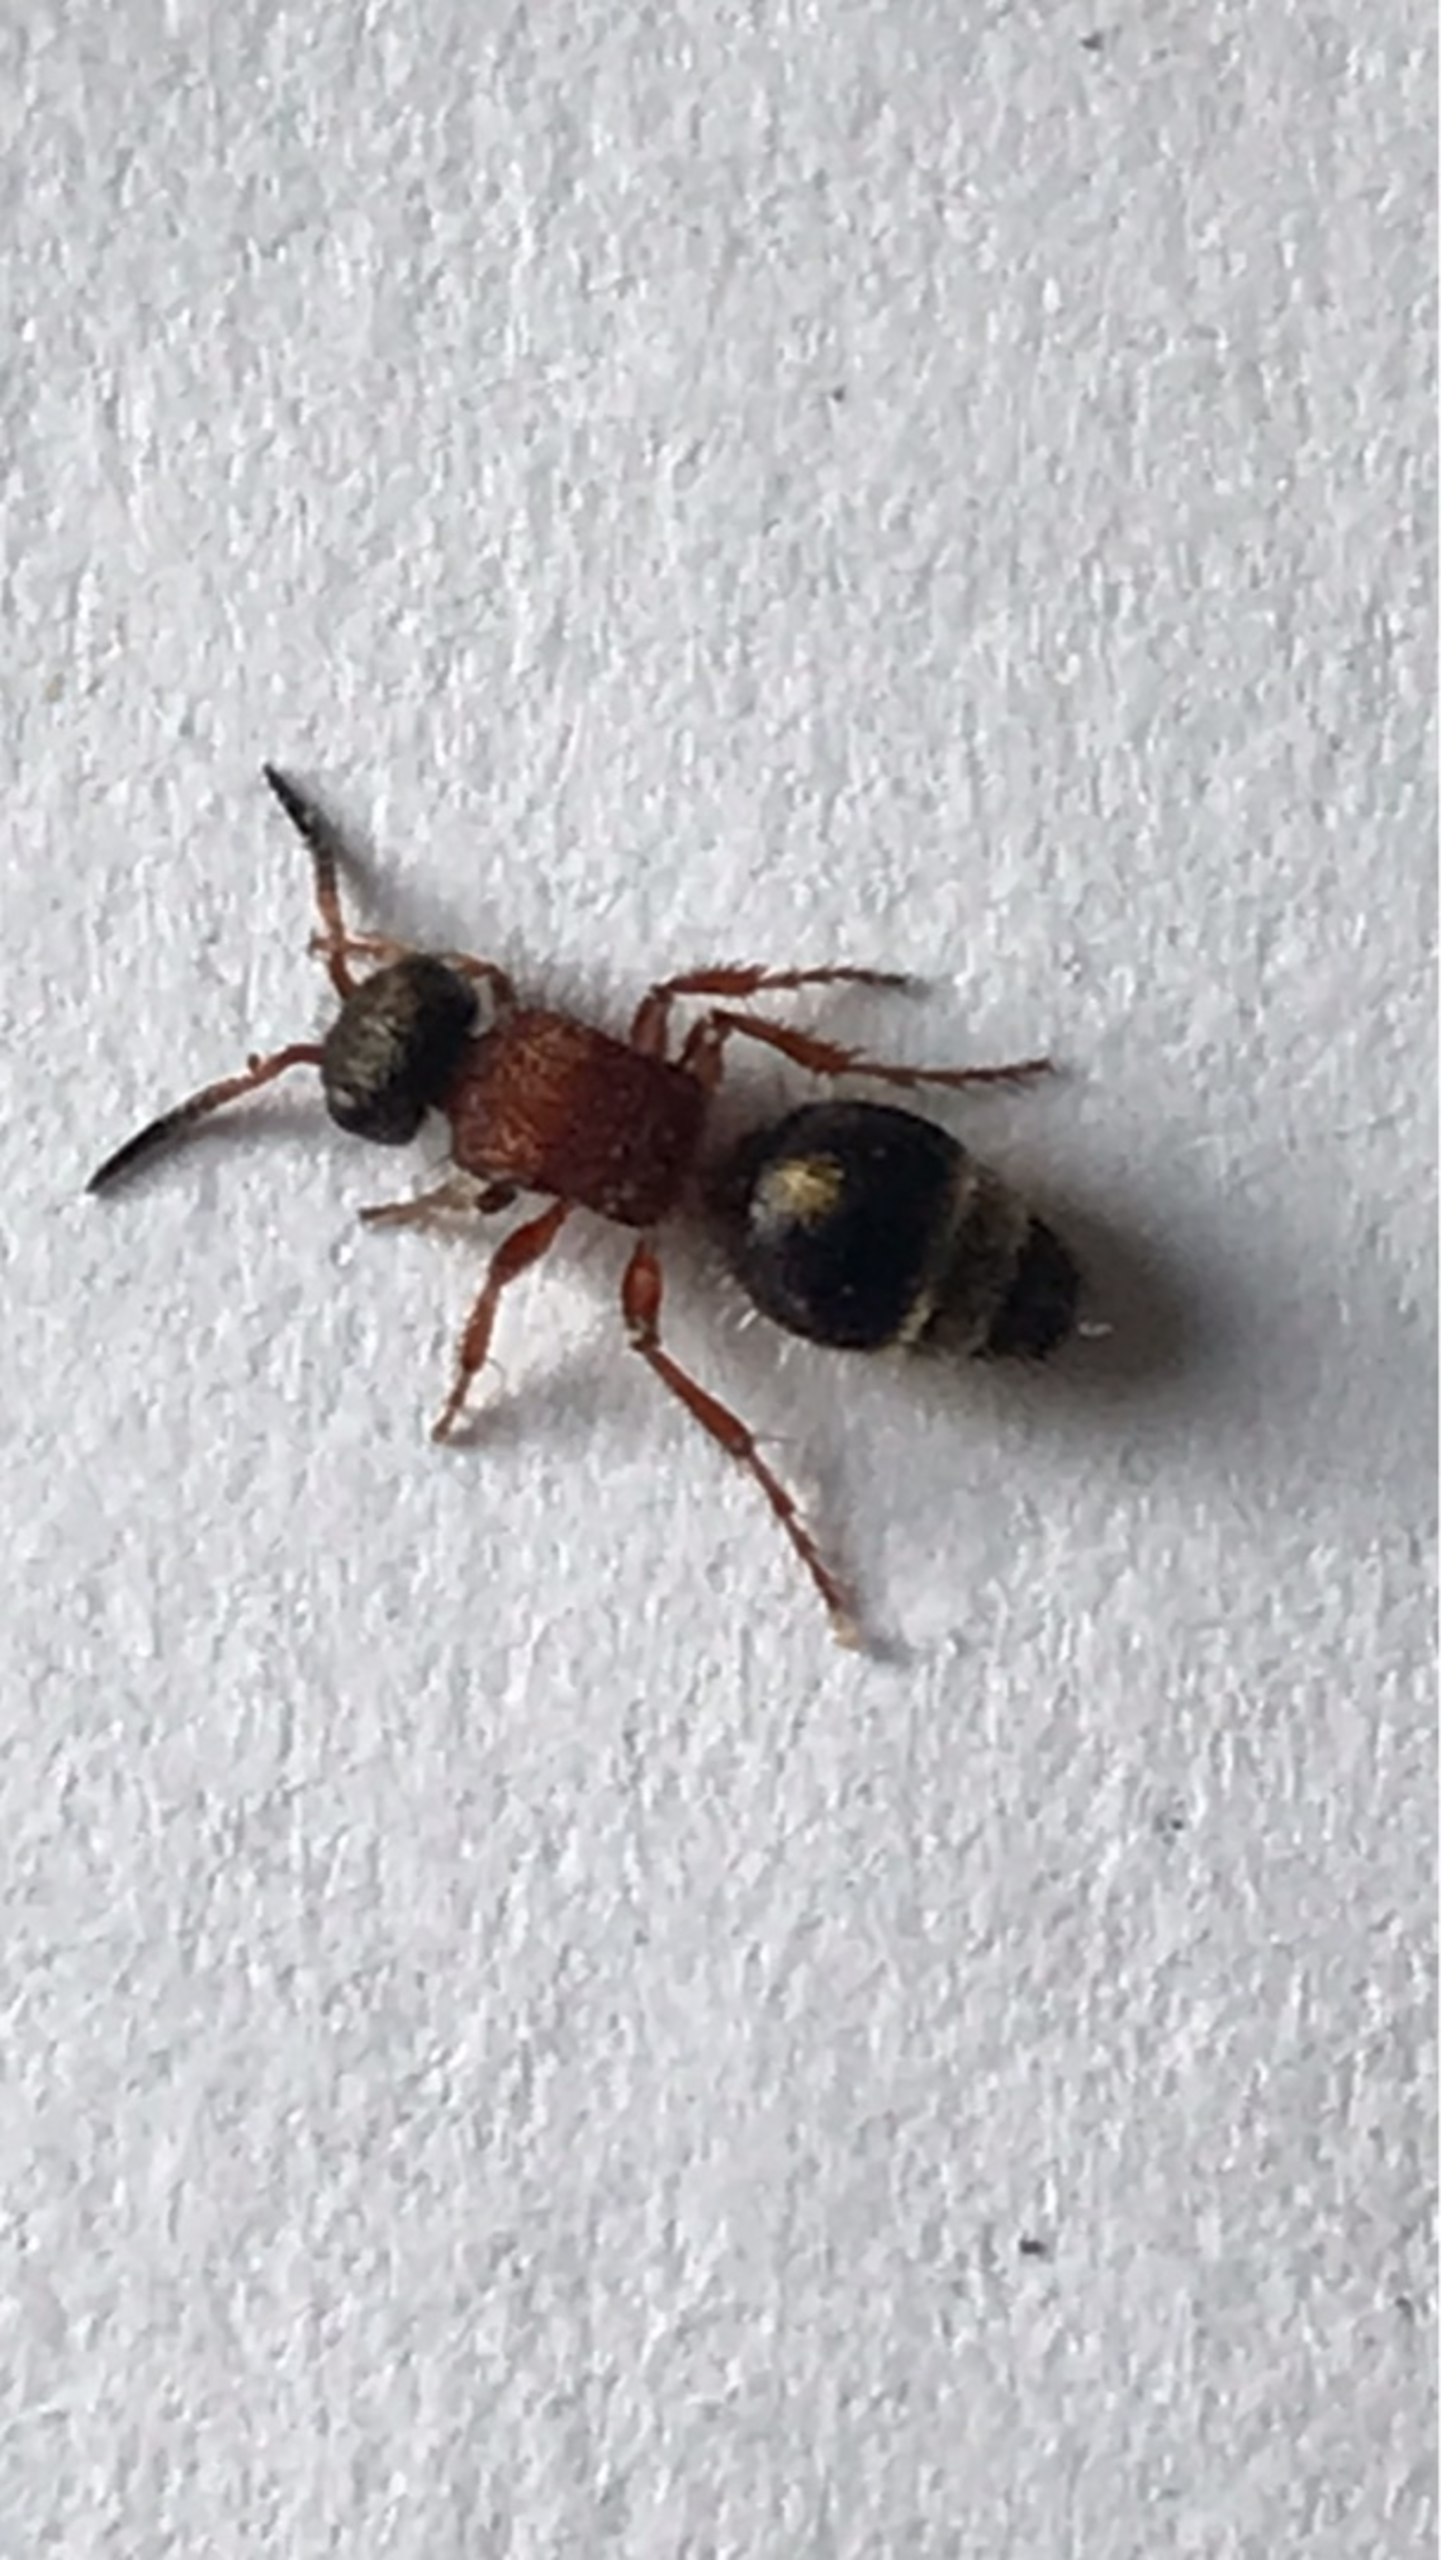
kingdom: Animalia
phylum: Arthropoda
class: Insecta
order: Hymenoptera
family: Mutillidae
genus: Smicromyrme
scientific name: Smicromyrme rufipes
